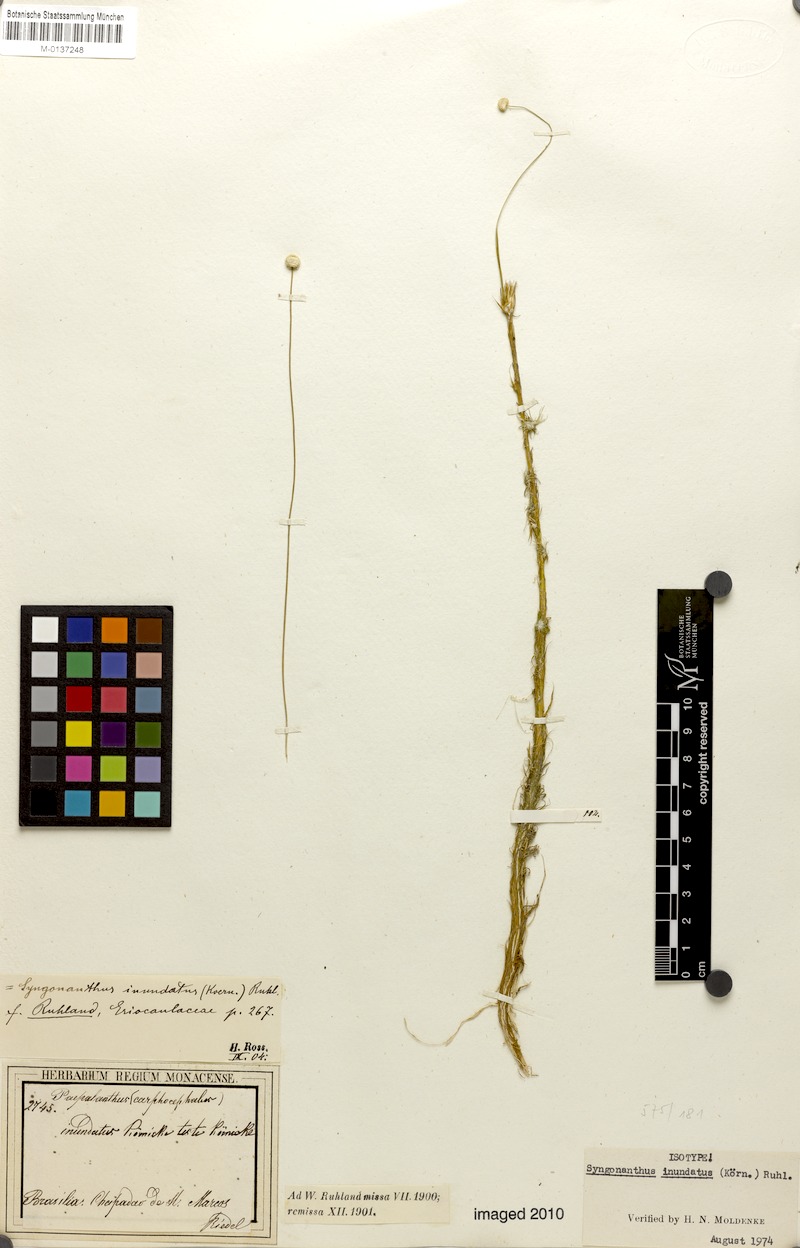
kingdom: Plantae
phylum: Tracheophyta
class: Liliopsida
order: Poales
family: Eriocaulaceae
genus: Syngonanthus
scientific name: Syngonanthus appressus
